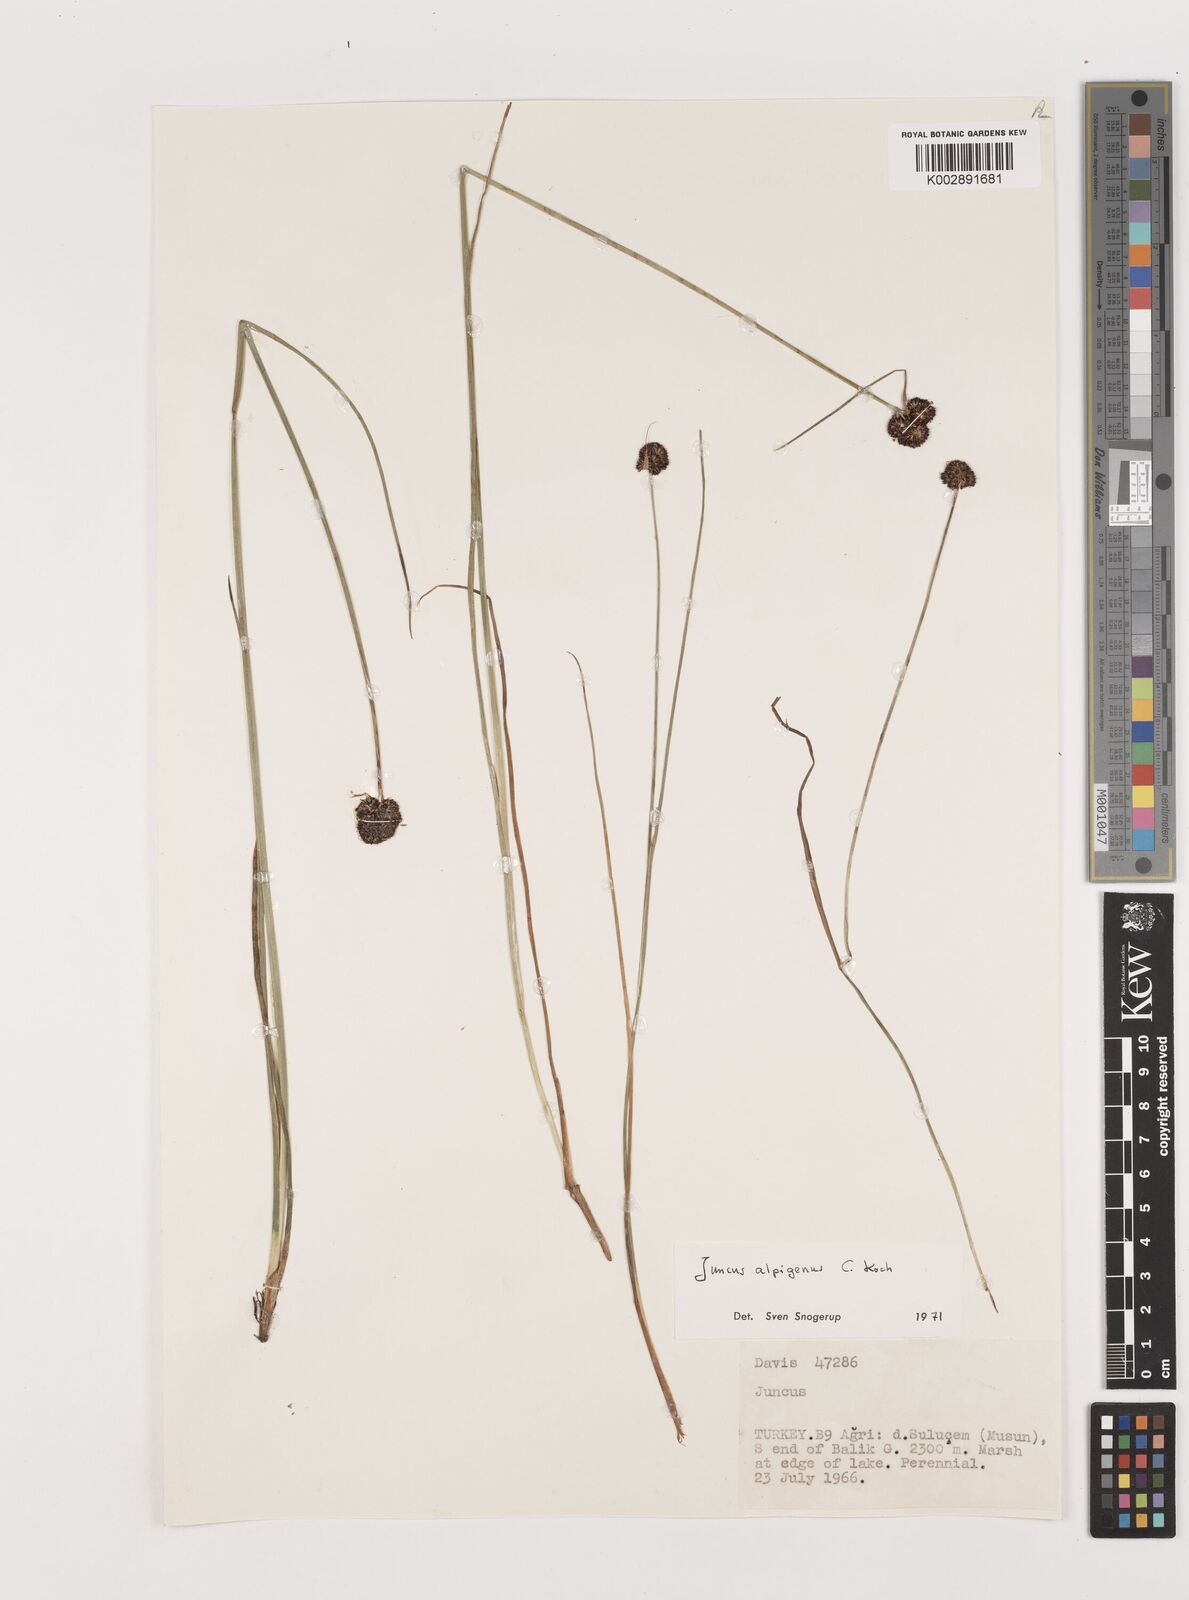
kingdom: Plantae
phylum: Tracheophyta
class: Liliopsida
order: Poales
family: Juncaceae
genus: Juncus
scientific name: Juncus alpigenus
